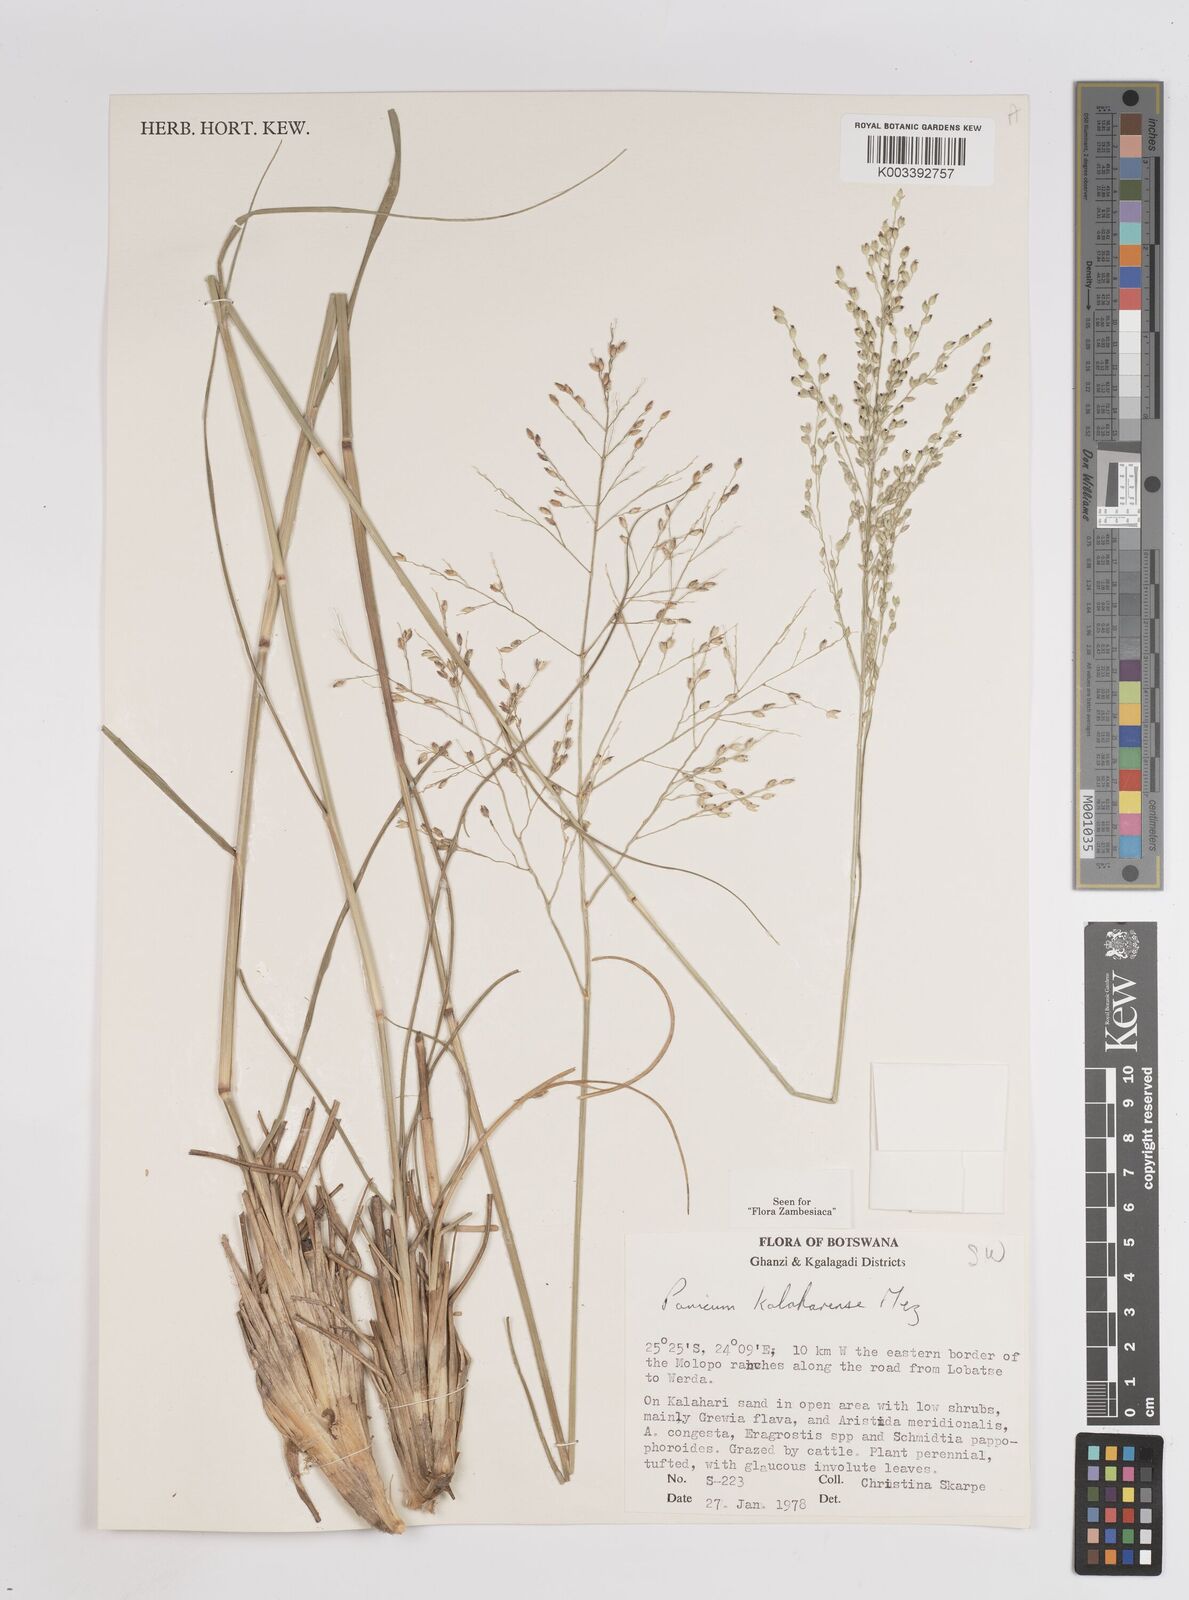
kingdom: Plantae
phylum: Tracheophyta
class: Liliopsida
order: Poales
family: Poaceae
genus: Panicum
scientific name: Panicum kalaharense
